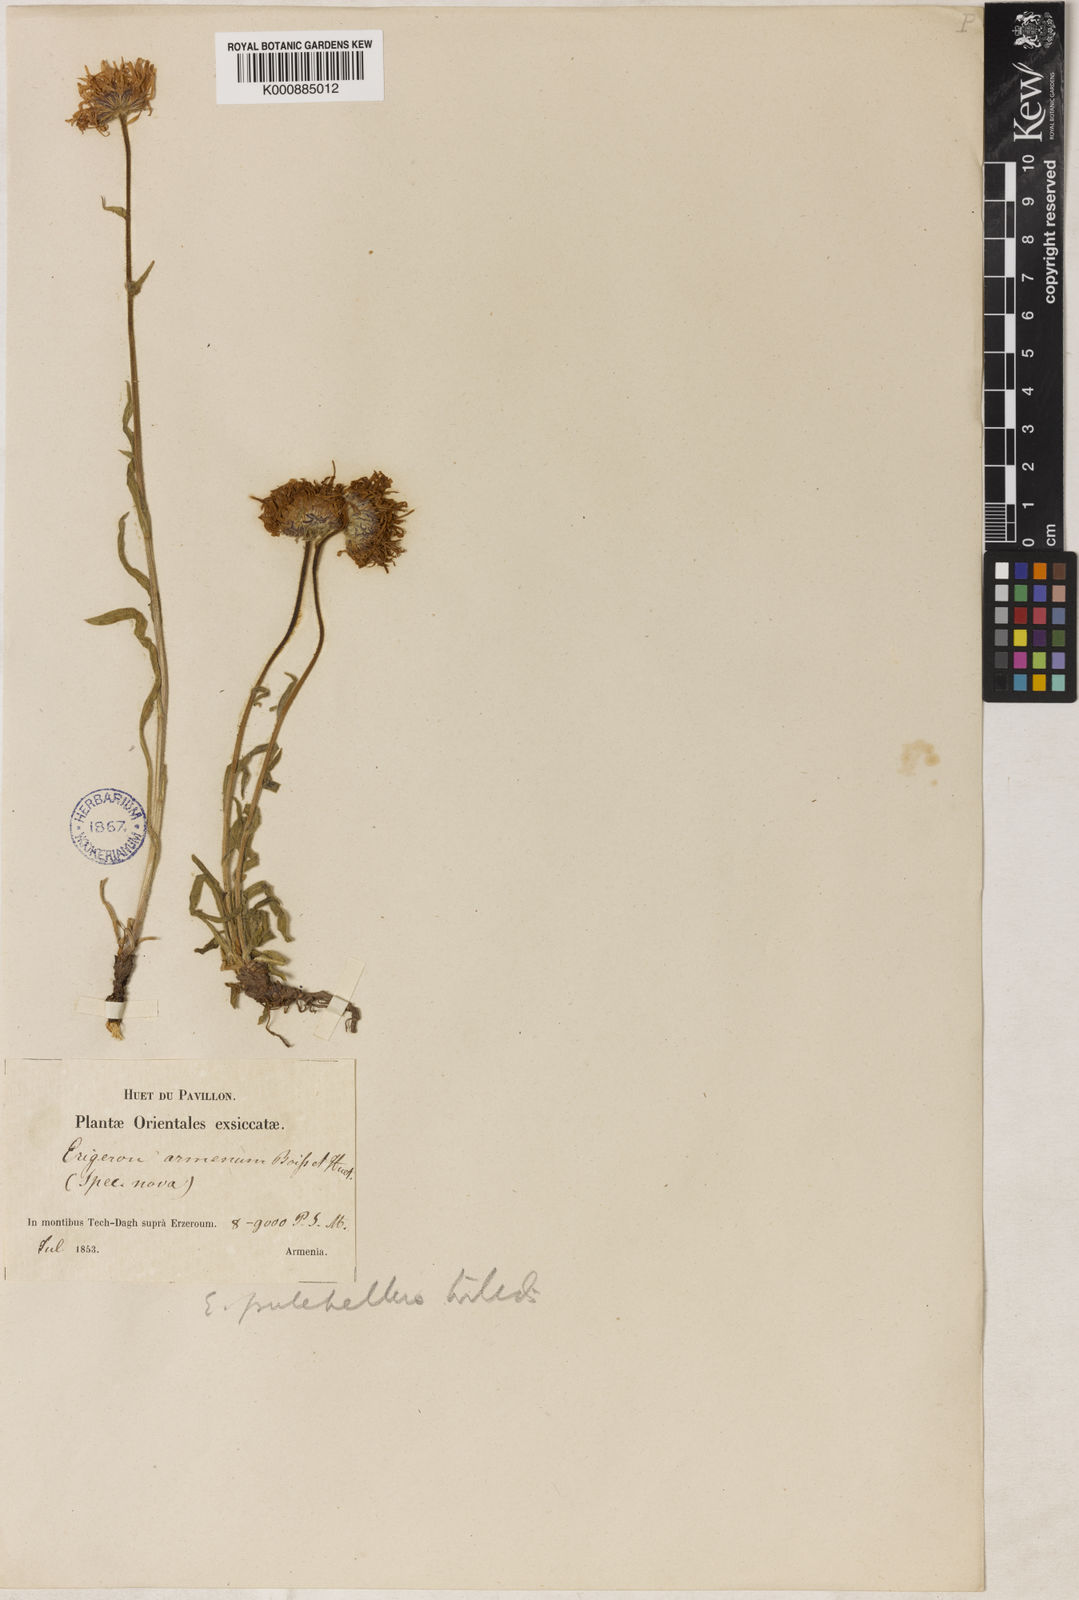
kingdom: Plantae
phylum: Tracheophyta
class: Magnoliopsida
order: Asterales
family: Asteraceae
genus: Erigeron
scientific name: Erigeron pulchellus
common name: Hairy fleabane
